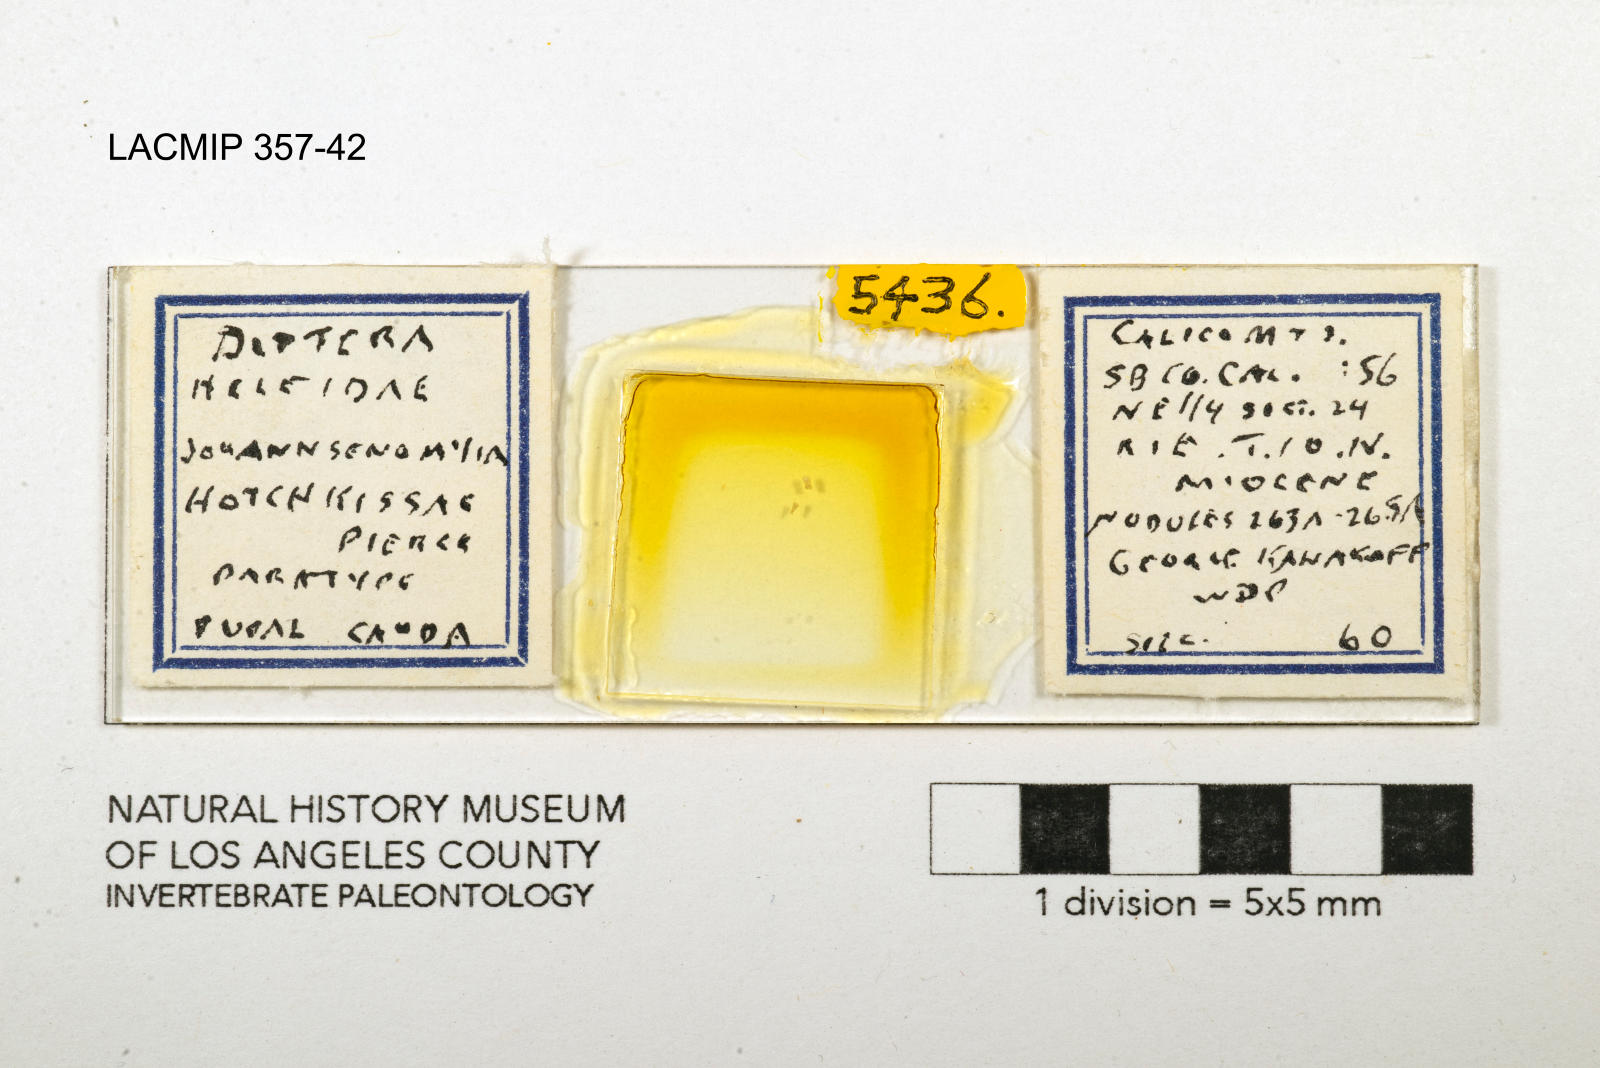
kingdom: Animalia
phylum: Arthropoda
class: Insecta
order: Diptera
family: Ceratopogonidae
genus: Johannsenomyia
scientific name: Johannsenomyia
